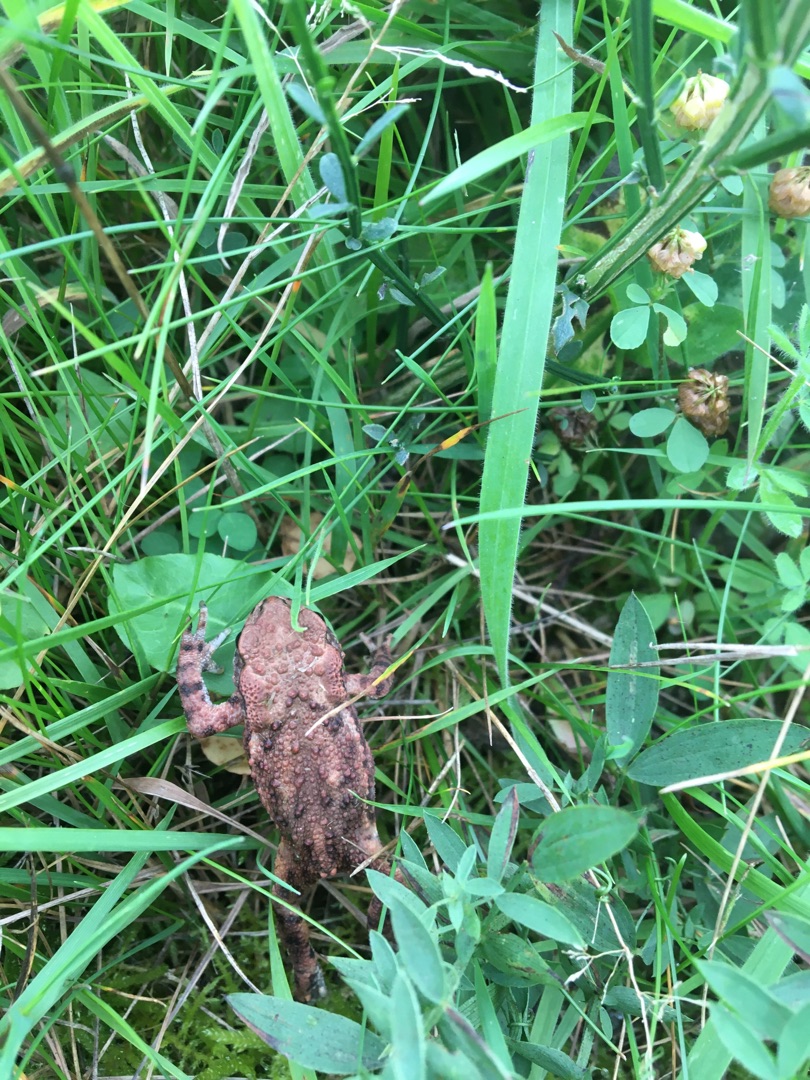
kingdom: Animalia
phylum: Chordata
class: Amphibia
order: Anura
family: Bufonidae
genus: Bufo
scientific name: Bufo bufo
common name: Skrubtudse
